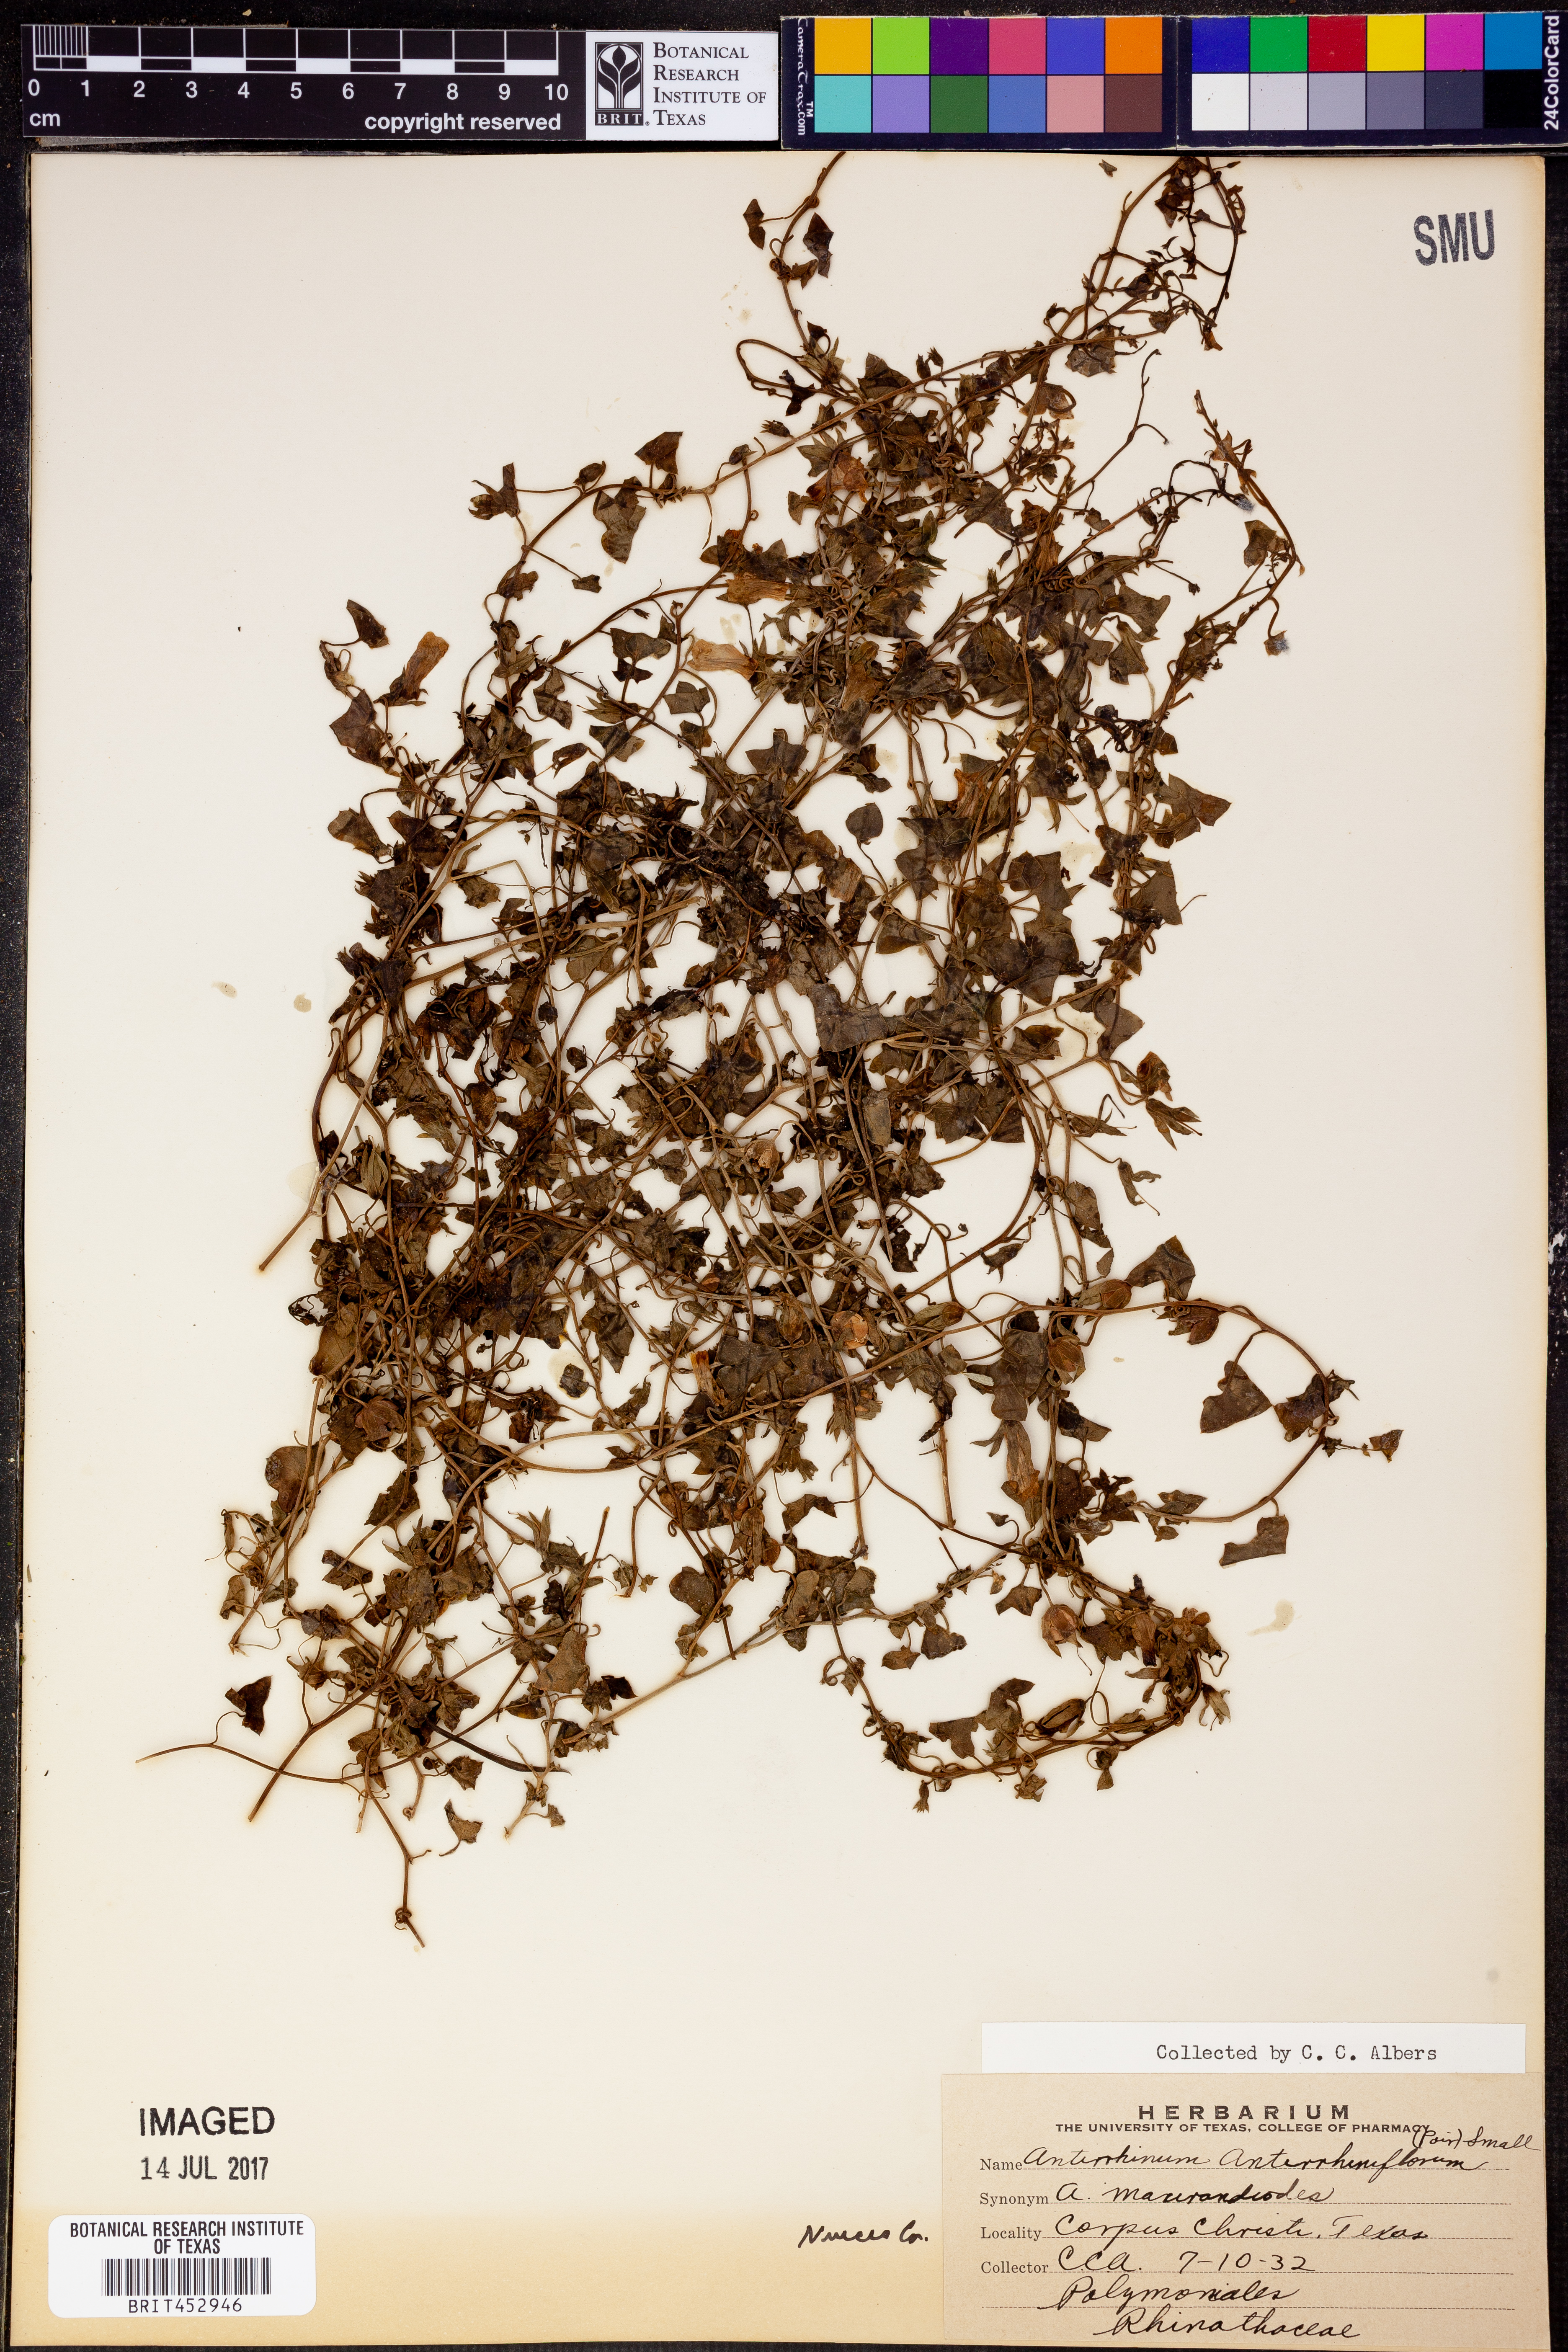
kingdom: Plantae
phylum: Tracheophyta
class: Magnoliopsida
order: Lamiales
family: Plantaginaceae
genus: Maurandella
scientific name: Maurandella antirrhiniflora
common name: Violet twining-snapdragon
